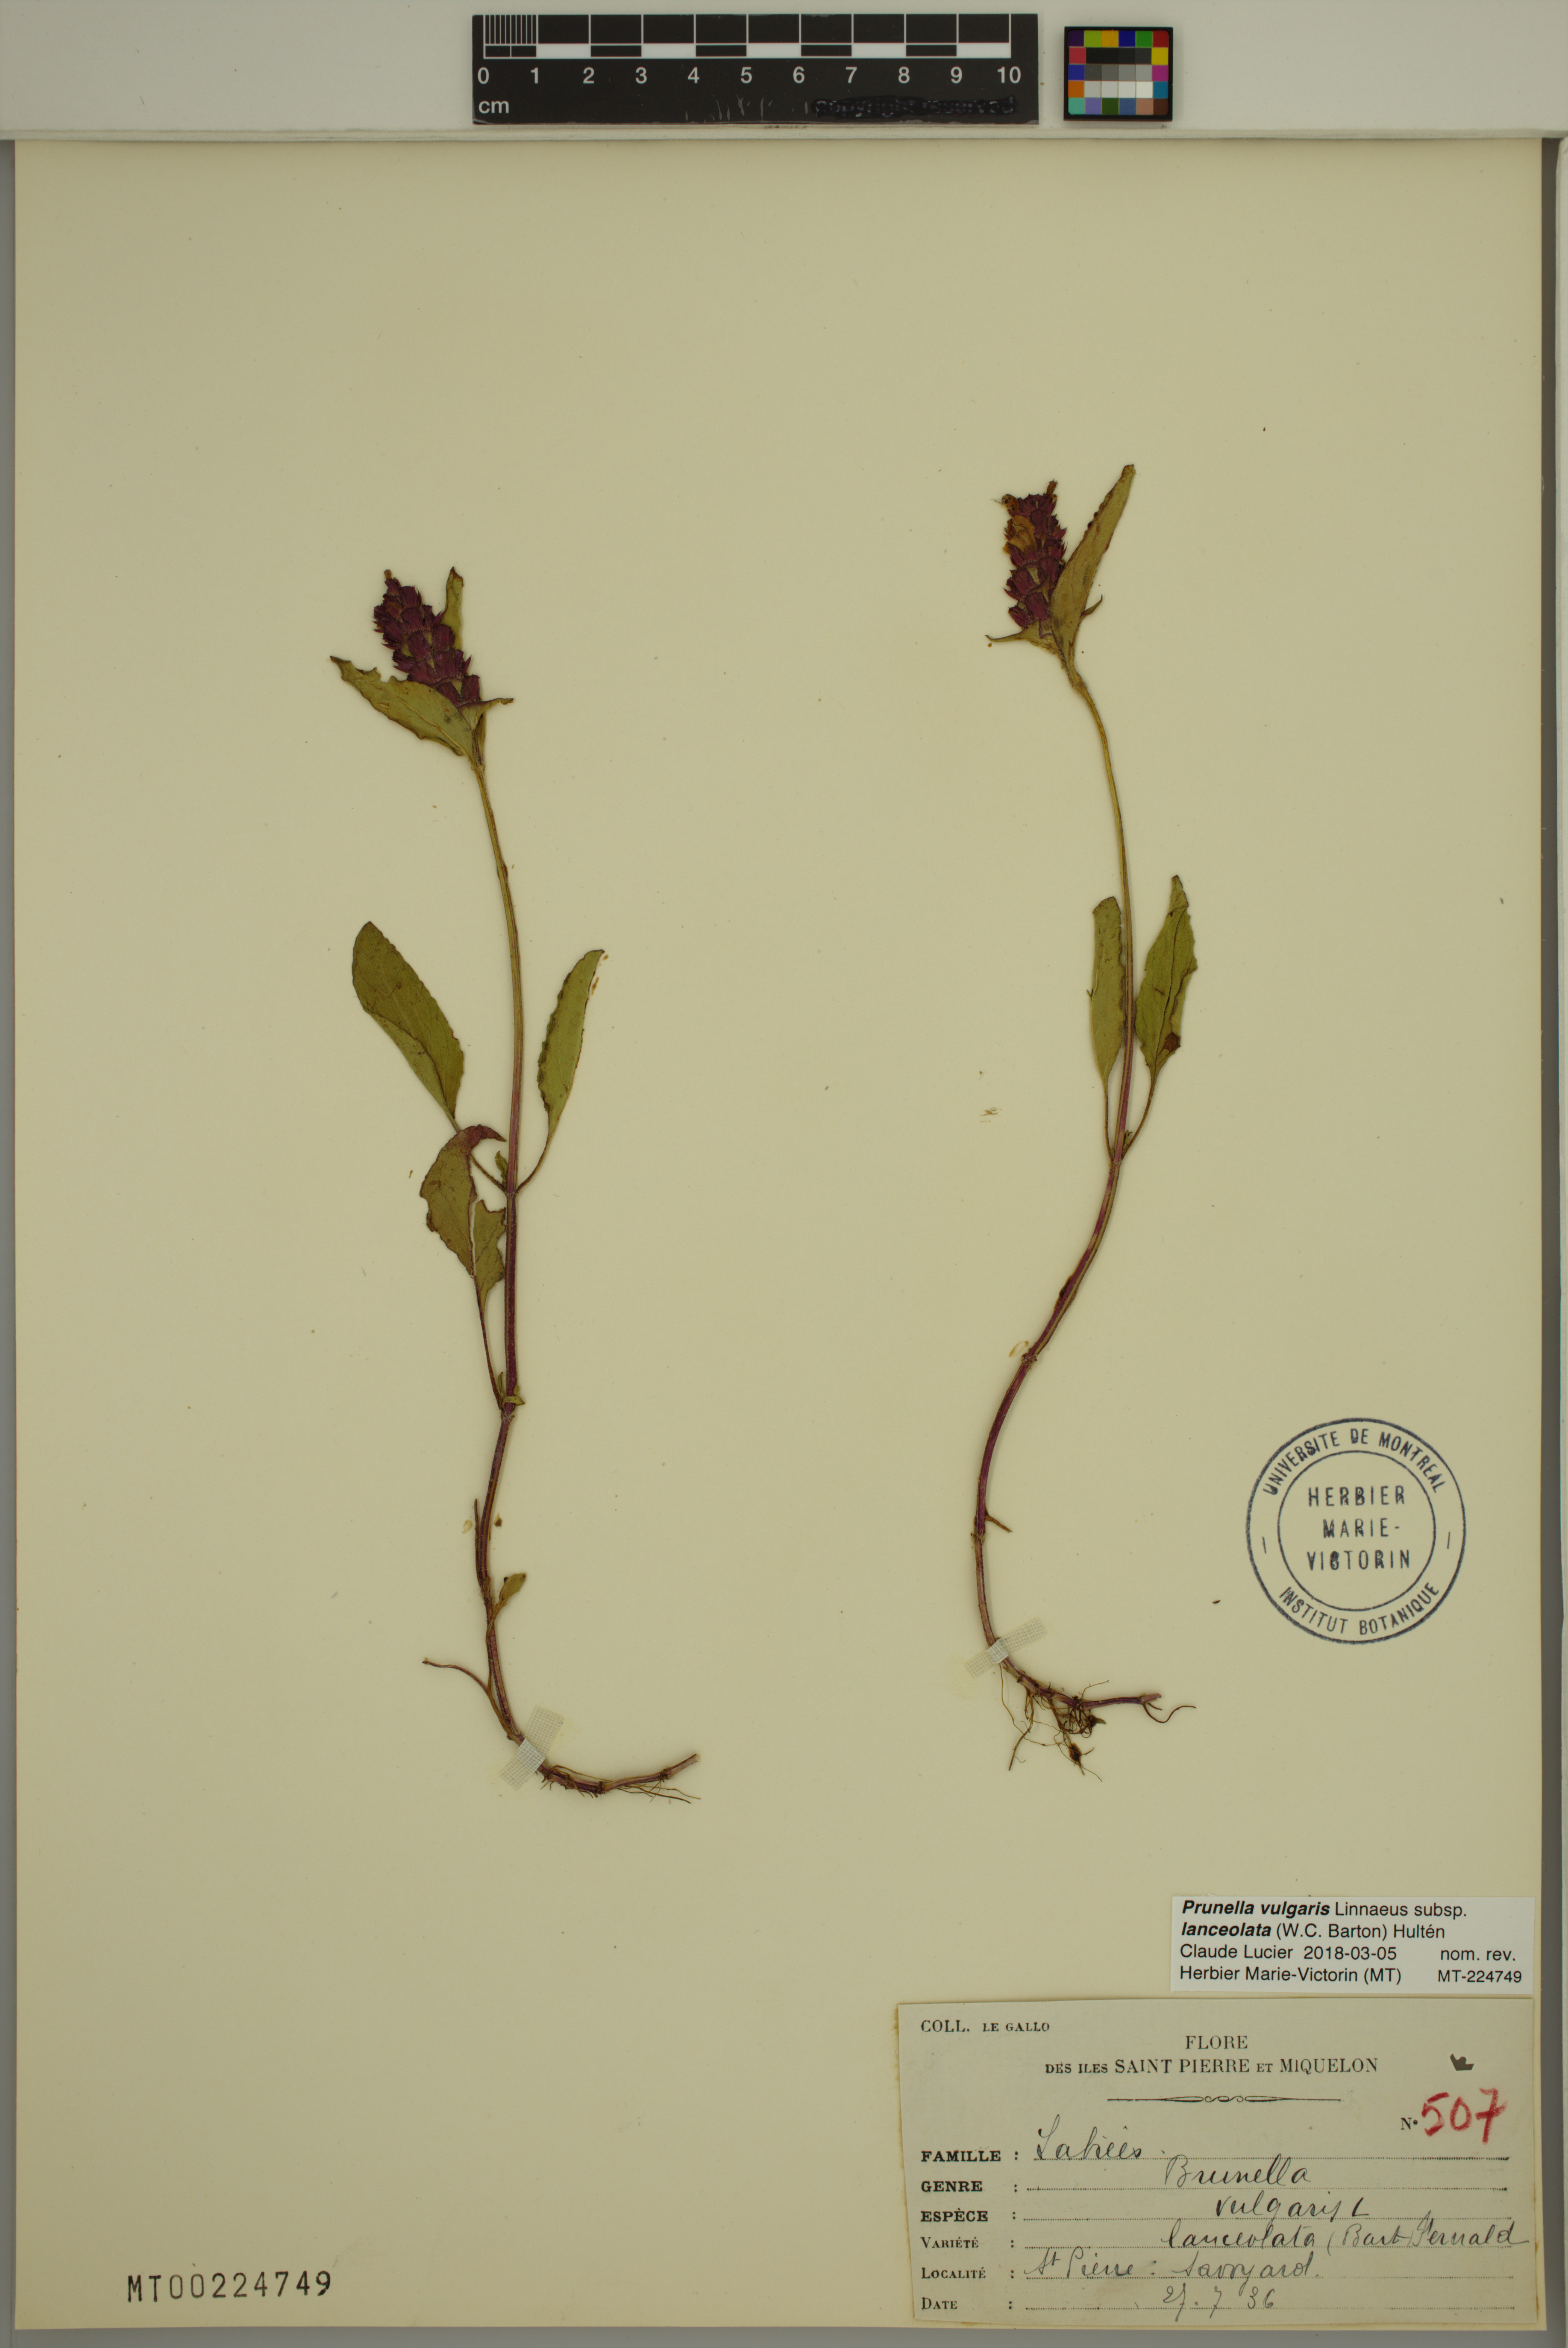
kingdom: Plantae
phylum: Tracheophyta
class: Magnoliopsida
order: Lamiales
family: Lamiaceae
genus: Prunella
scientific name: Prunella vulgaris
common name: Heal-all
